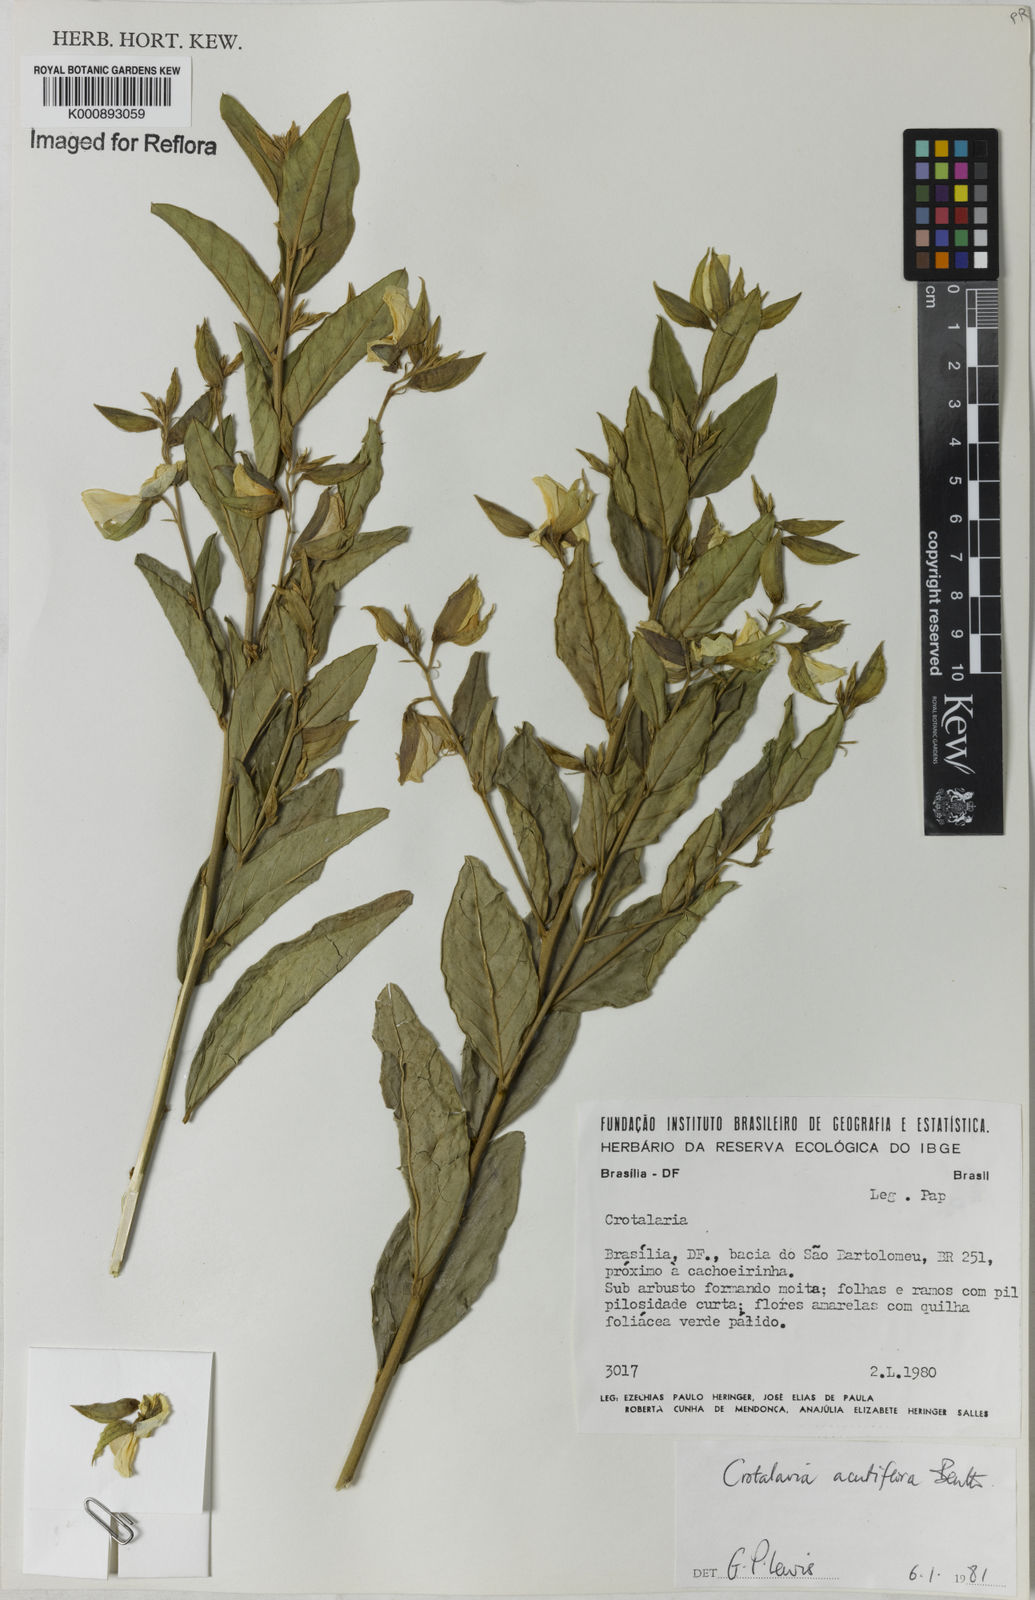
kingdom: Plantae
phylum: Tracheophyta
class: Magnoliopsida
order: Fabales
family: Fabaceae
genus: Crotalaria
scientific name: Crotalaria grandiflora
